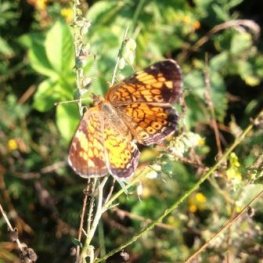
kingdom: Animalia
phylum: Arthropoda
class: Insecta
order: Lepidoptera
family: Nymphalidae
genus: Phyciodes
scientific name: Phyciodes tharos
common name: Pearl Crescent
